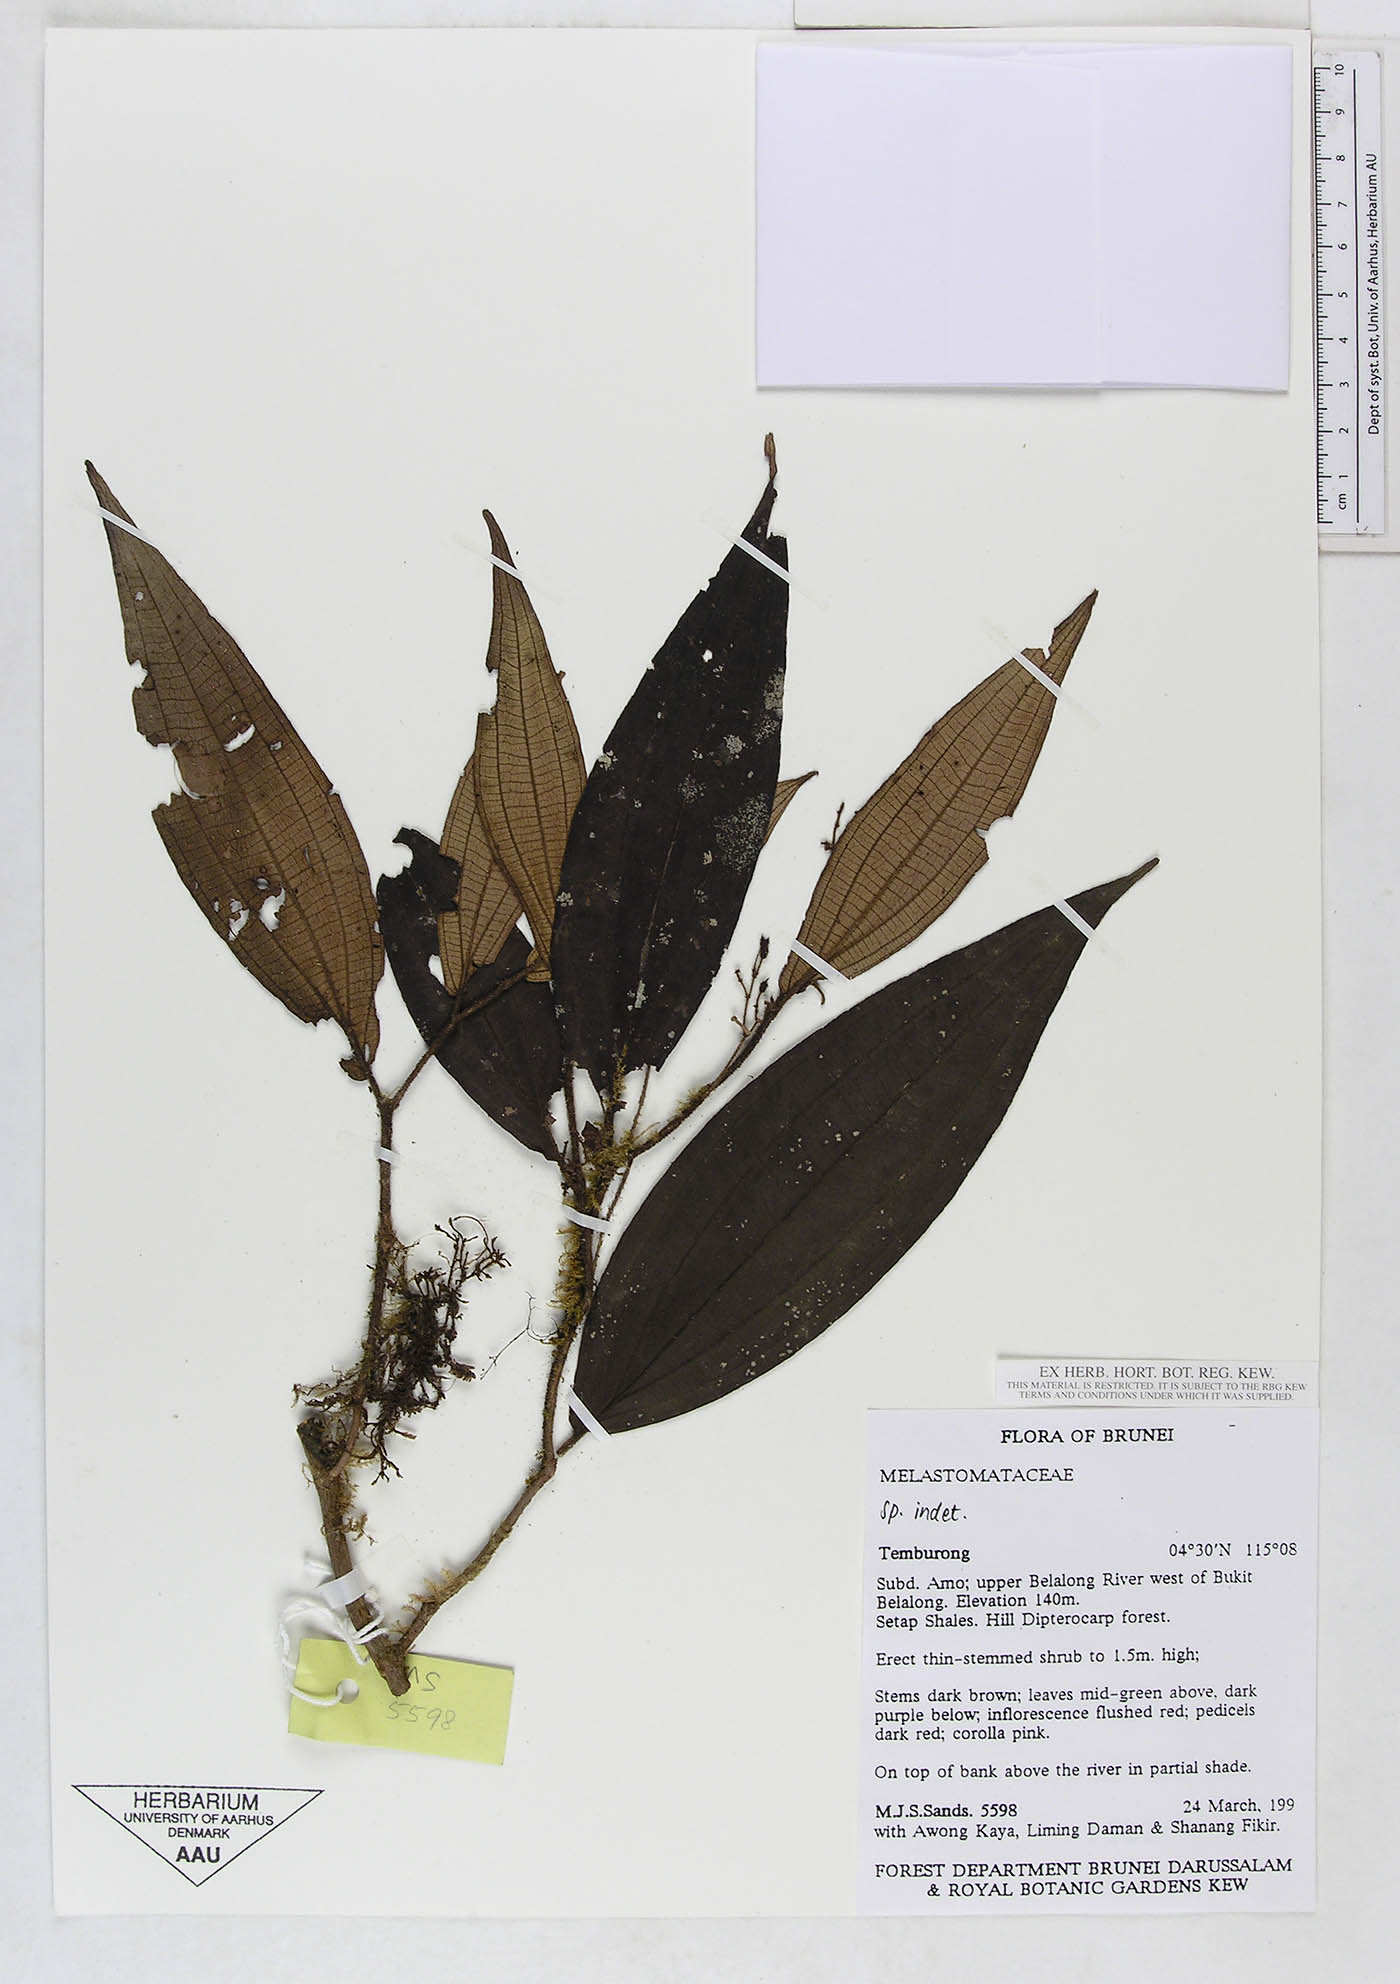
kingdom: Plantae
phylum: Tracheophyta
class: Magnoliopsida
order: Myrtales
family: Melastomataceae
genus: Driessenia
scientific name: Driessenia
